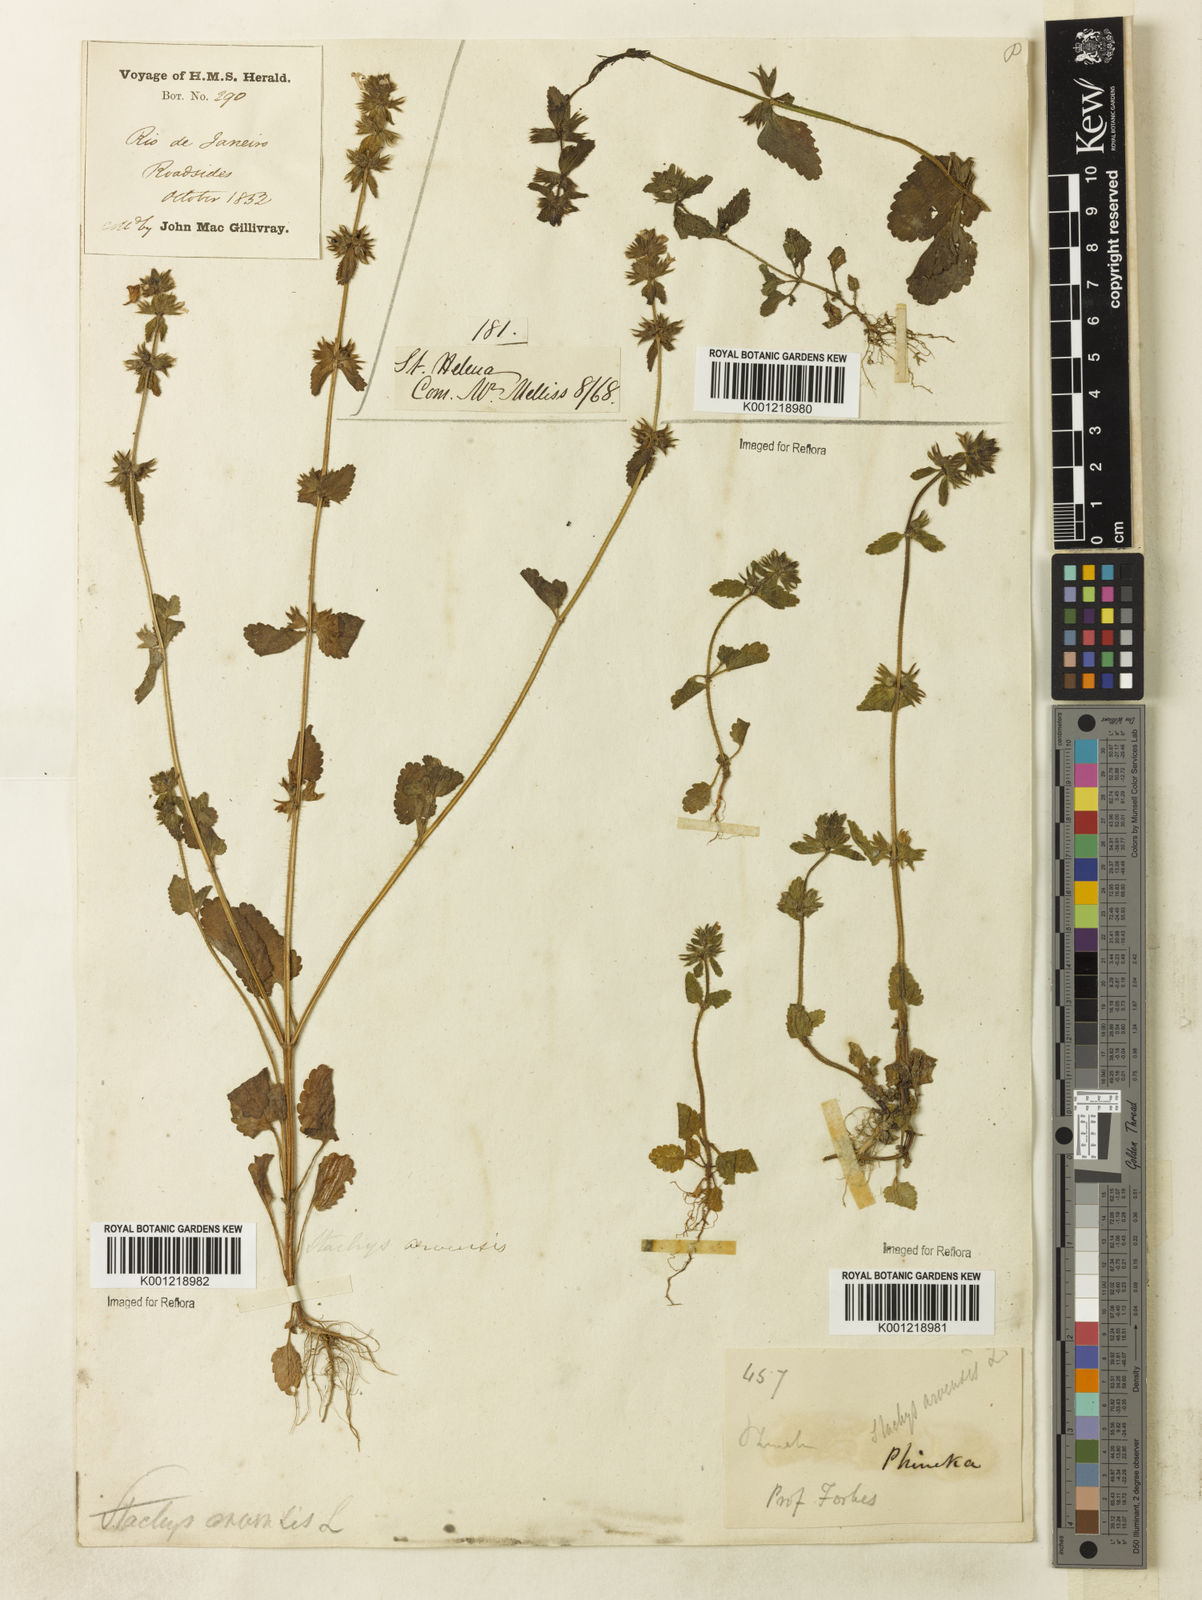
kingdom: Plantae
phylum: Tracheophyta
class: Magnoliopsida
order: Lamiales
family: Lamiaceae
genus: Stachys
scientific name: Stachys arvensis
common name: Field woundwort
